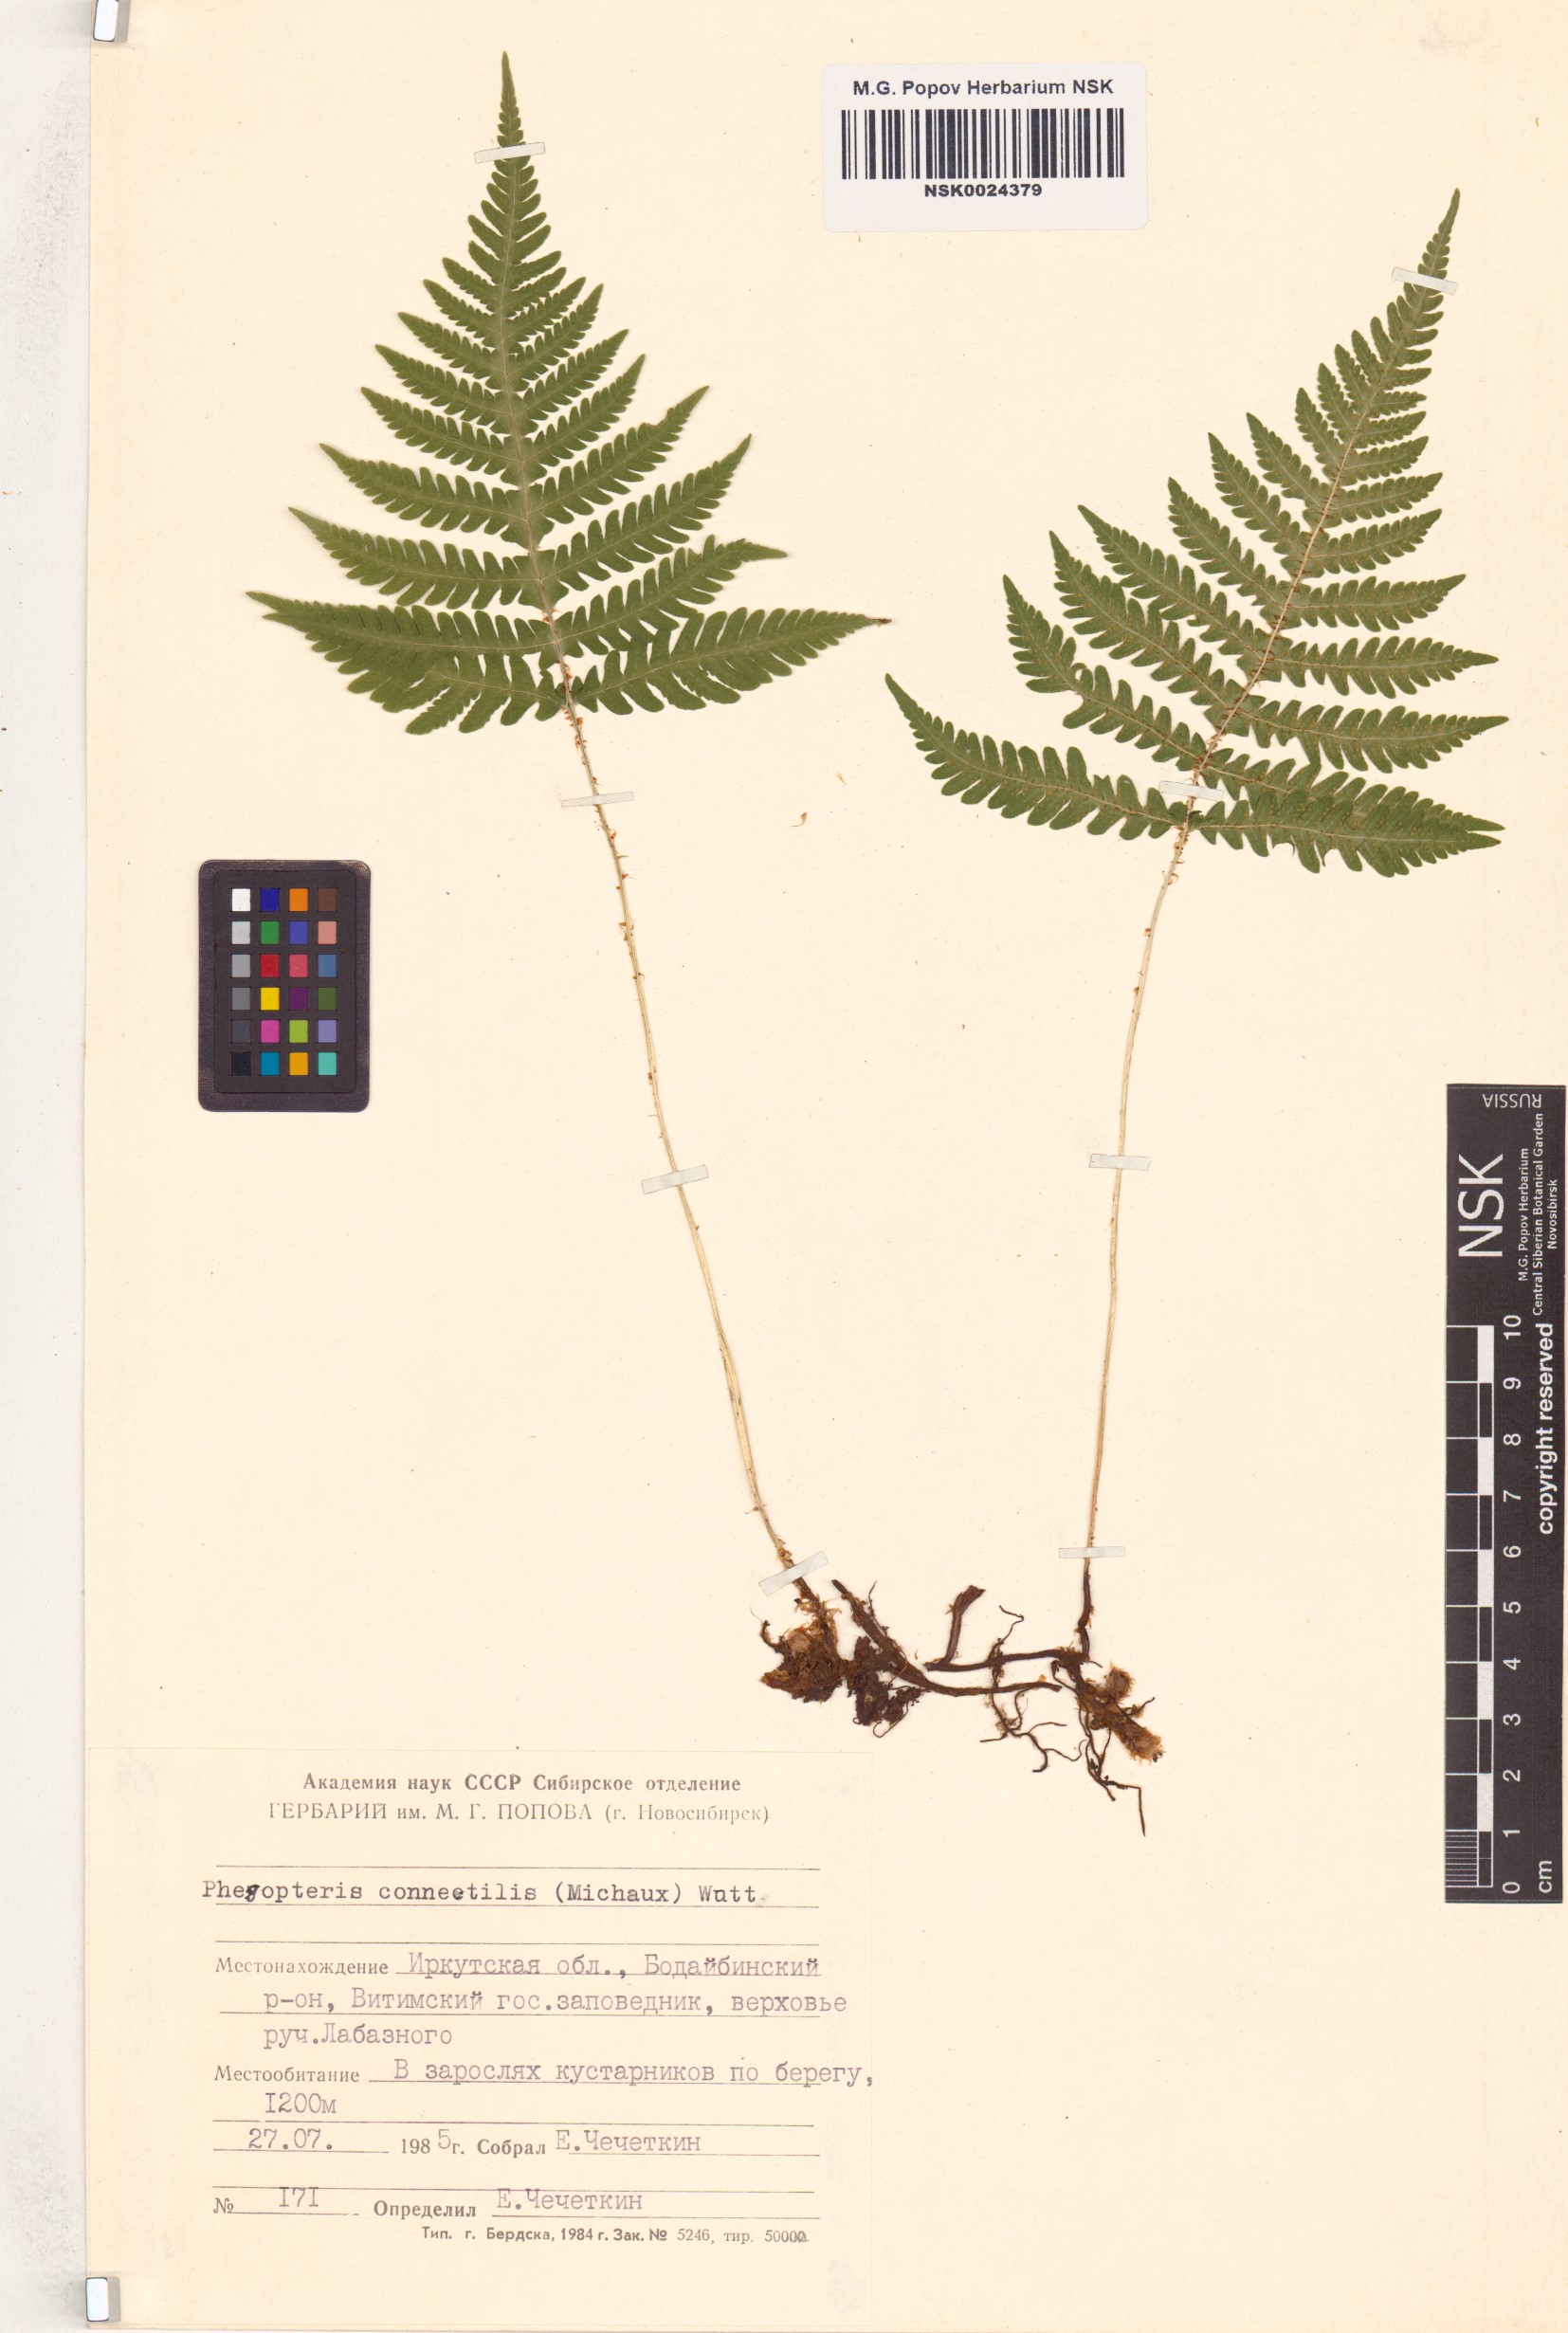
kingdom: Plantae
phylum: Tracheophyta
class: Polypodiopsida
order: Polypodiales
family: Thelypteridaceae
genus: Phegopteris
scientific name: Phegopteris connectilis
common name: Beech fern
